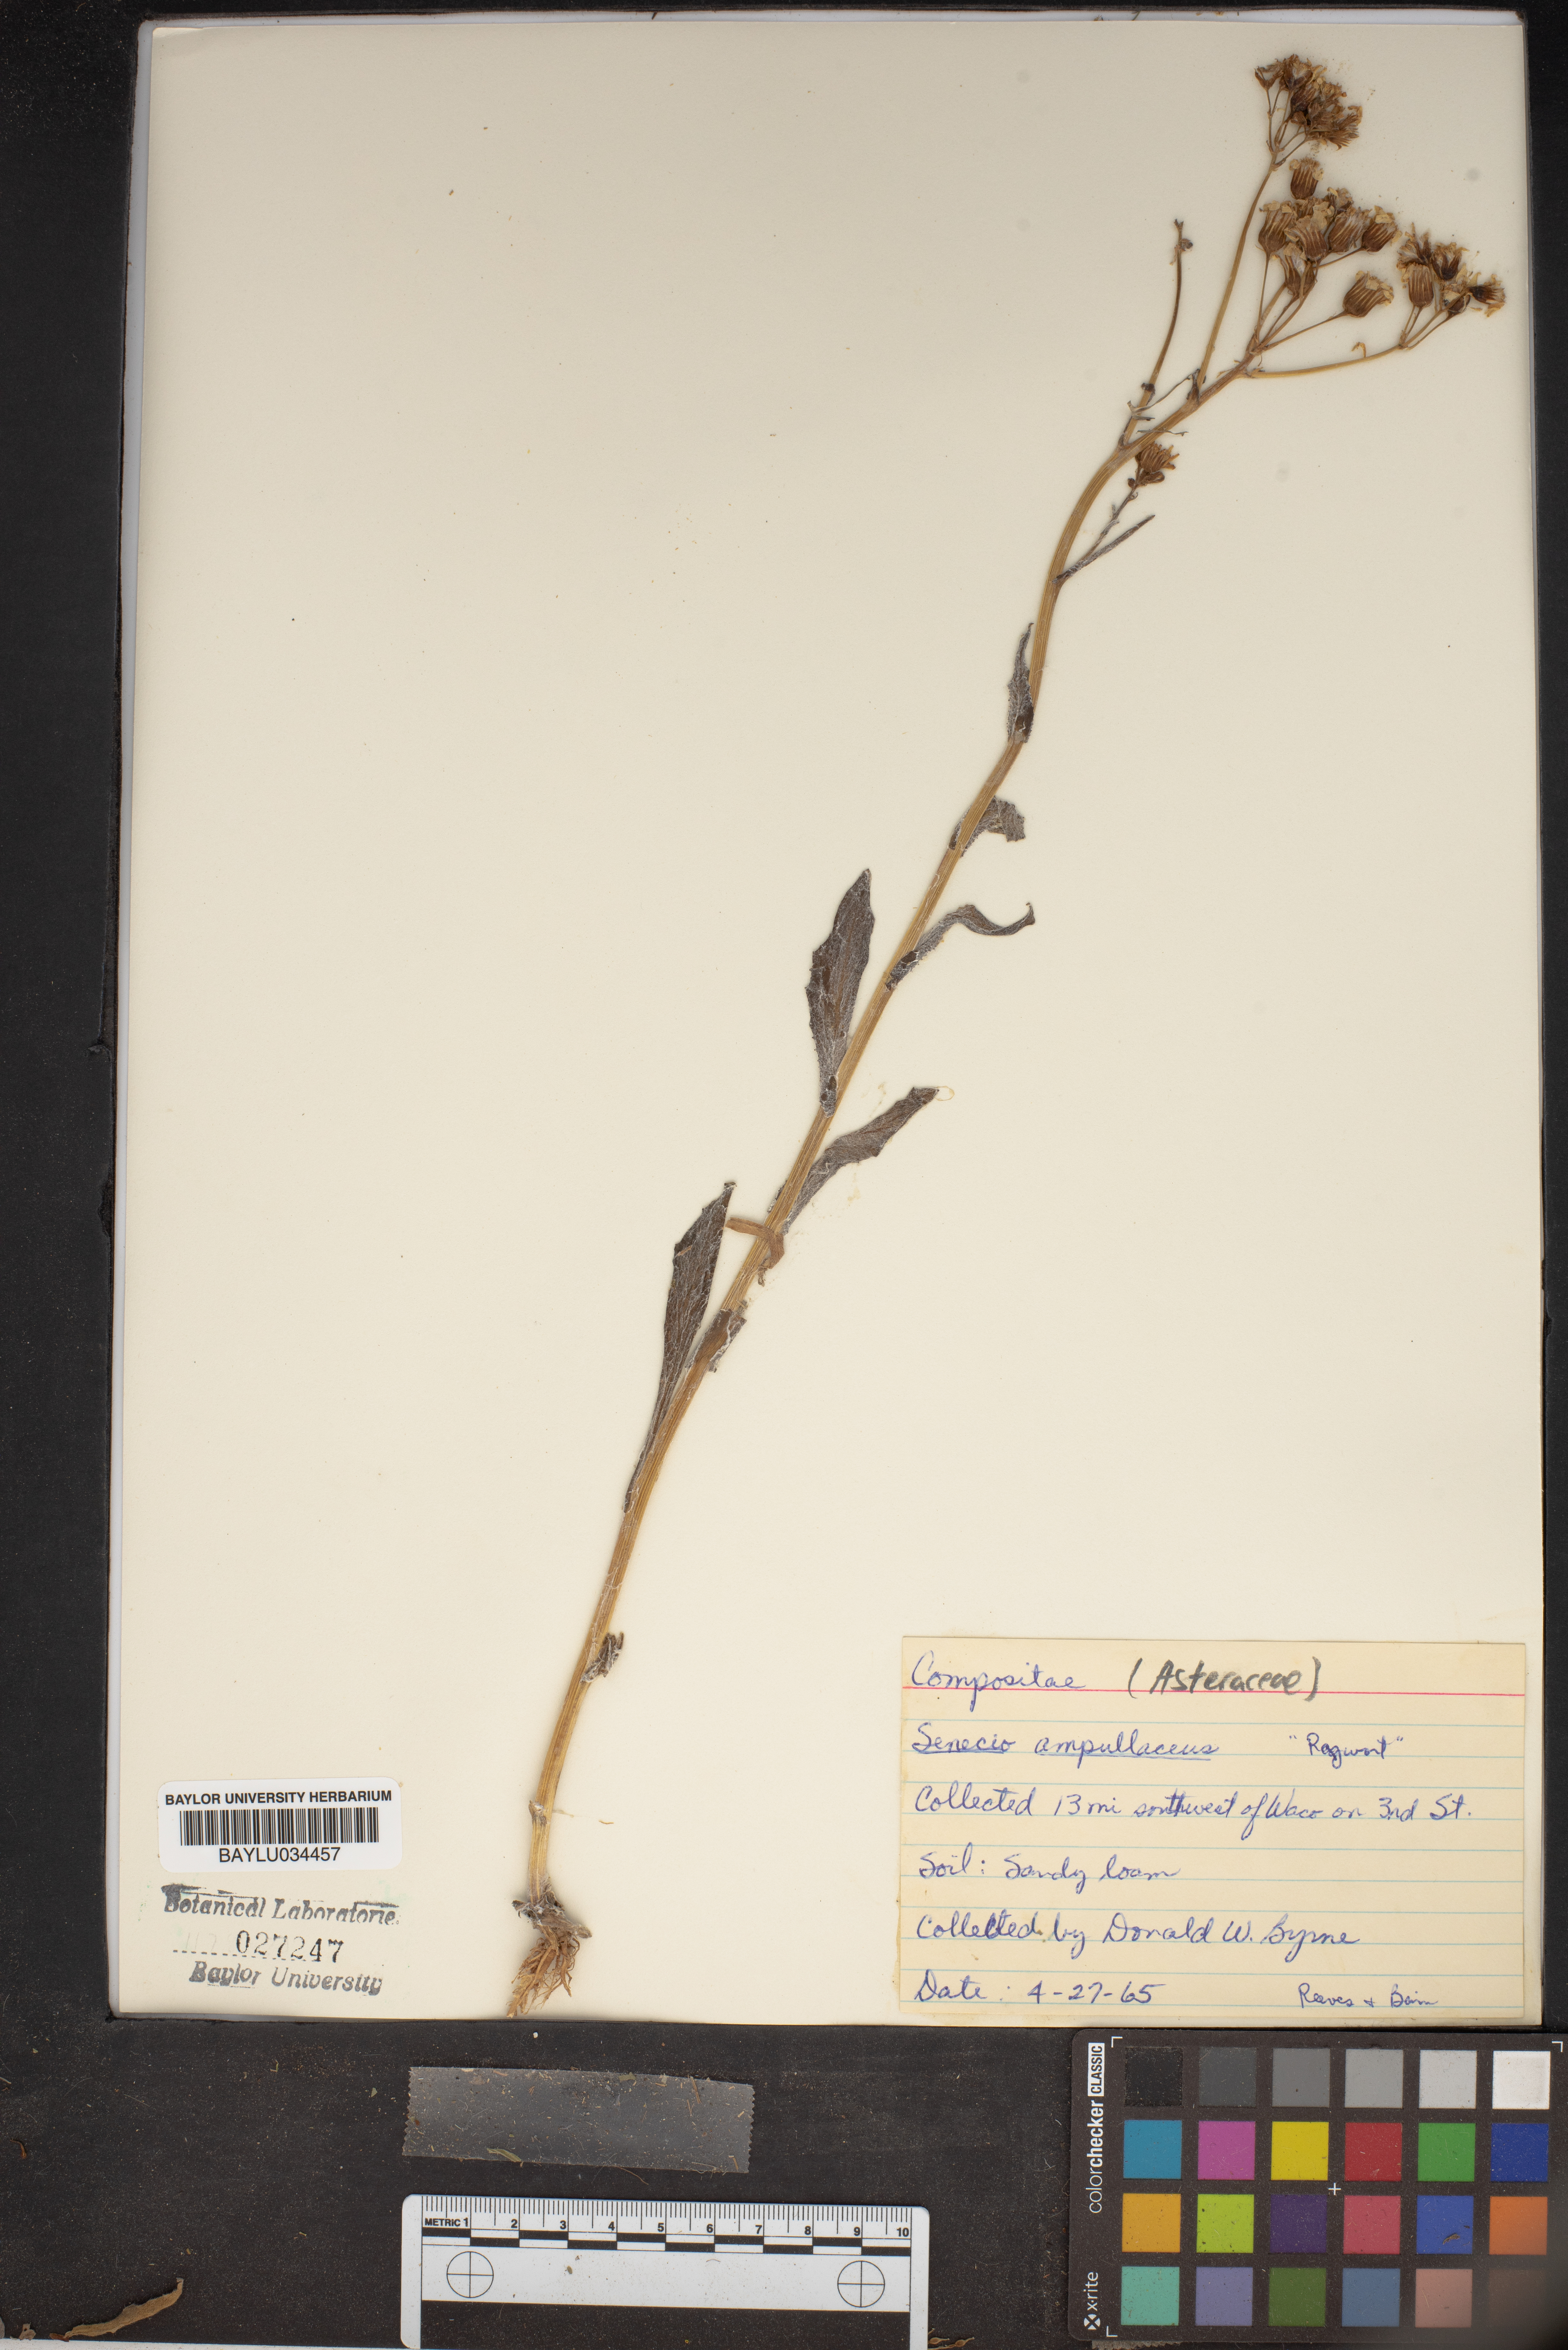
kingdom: Plantae
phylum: Tracheophyta
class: Magnoliopsida
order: Asterales
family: Asteraceae
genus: Senecio
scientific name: Senecio ampullaceus
